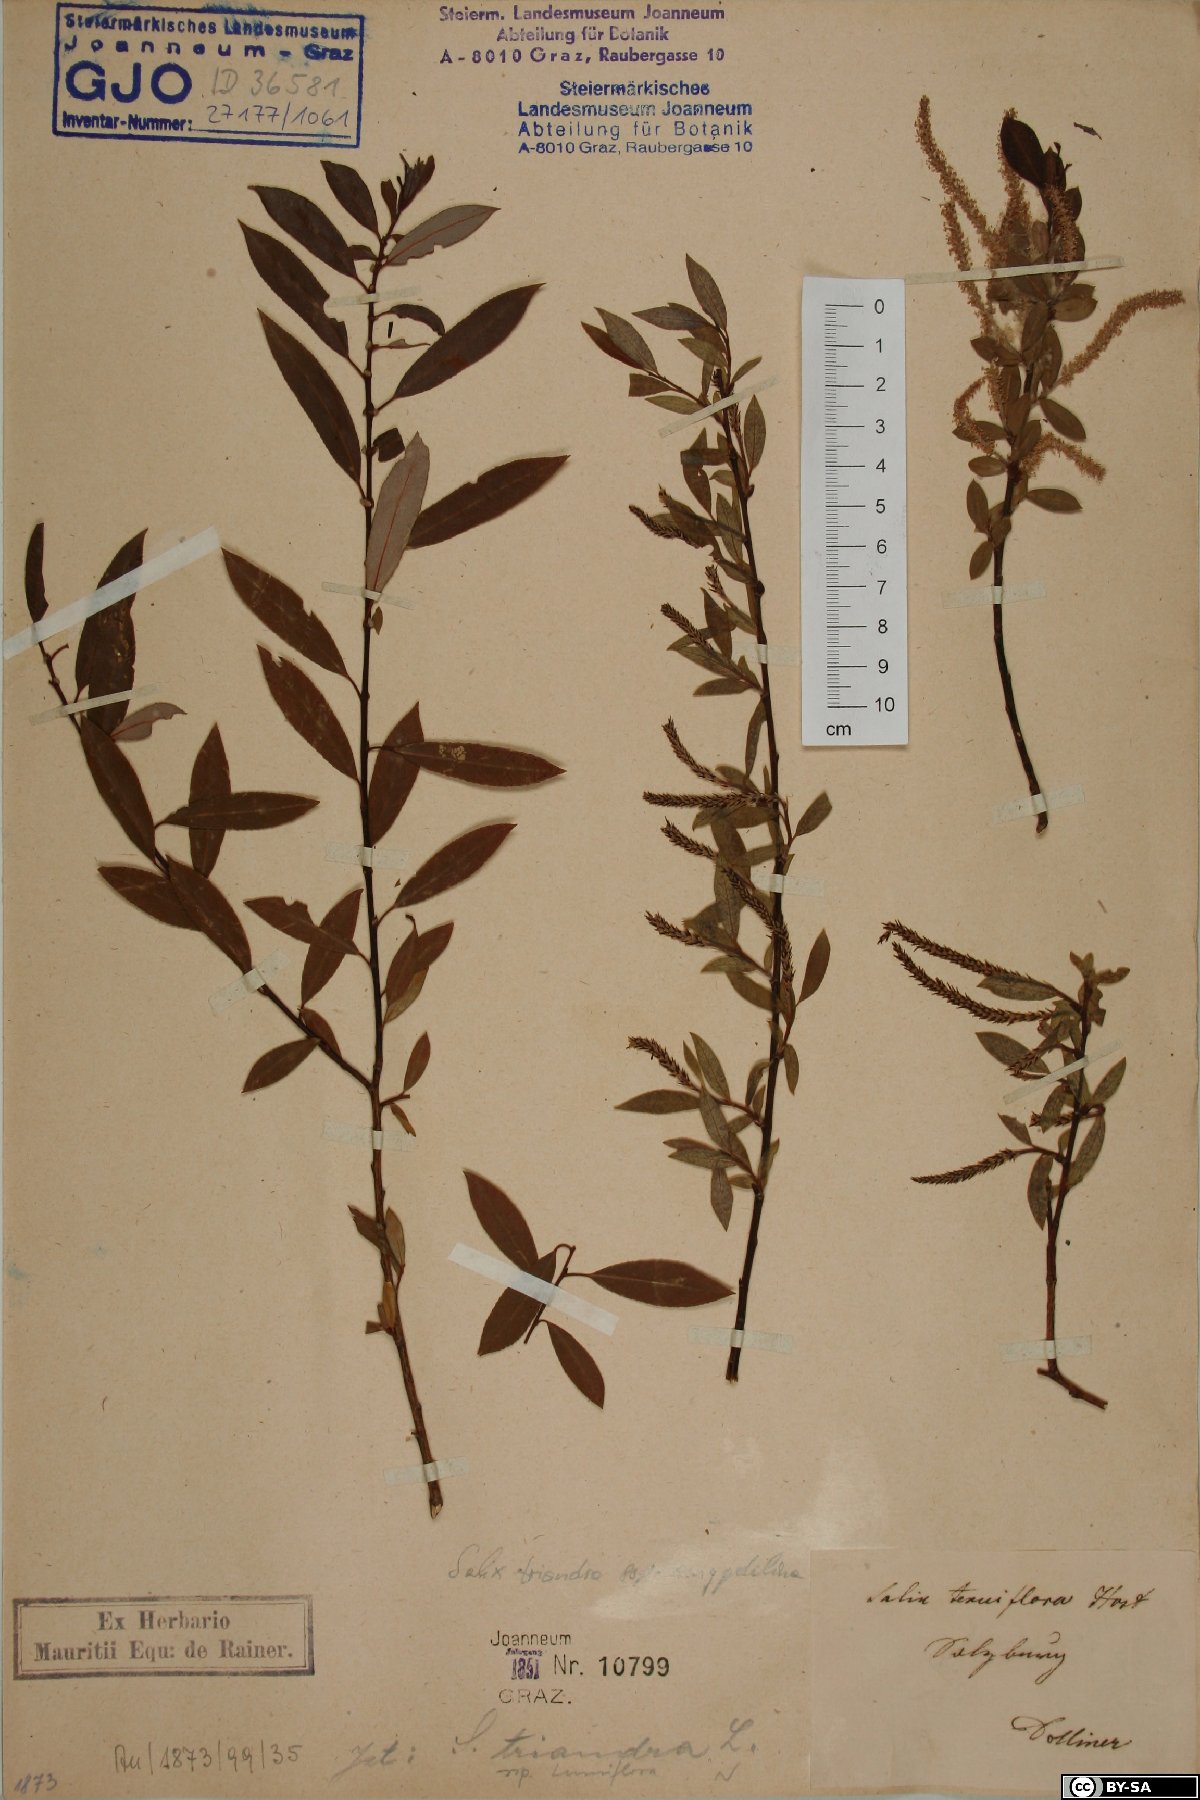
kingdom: Plantae
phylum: Tracheophyta
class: Magnoliopsida
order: Malpighiales
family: Salicaceae
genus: Salix
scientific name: Salix triandra
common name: Almond willow
